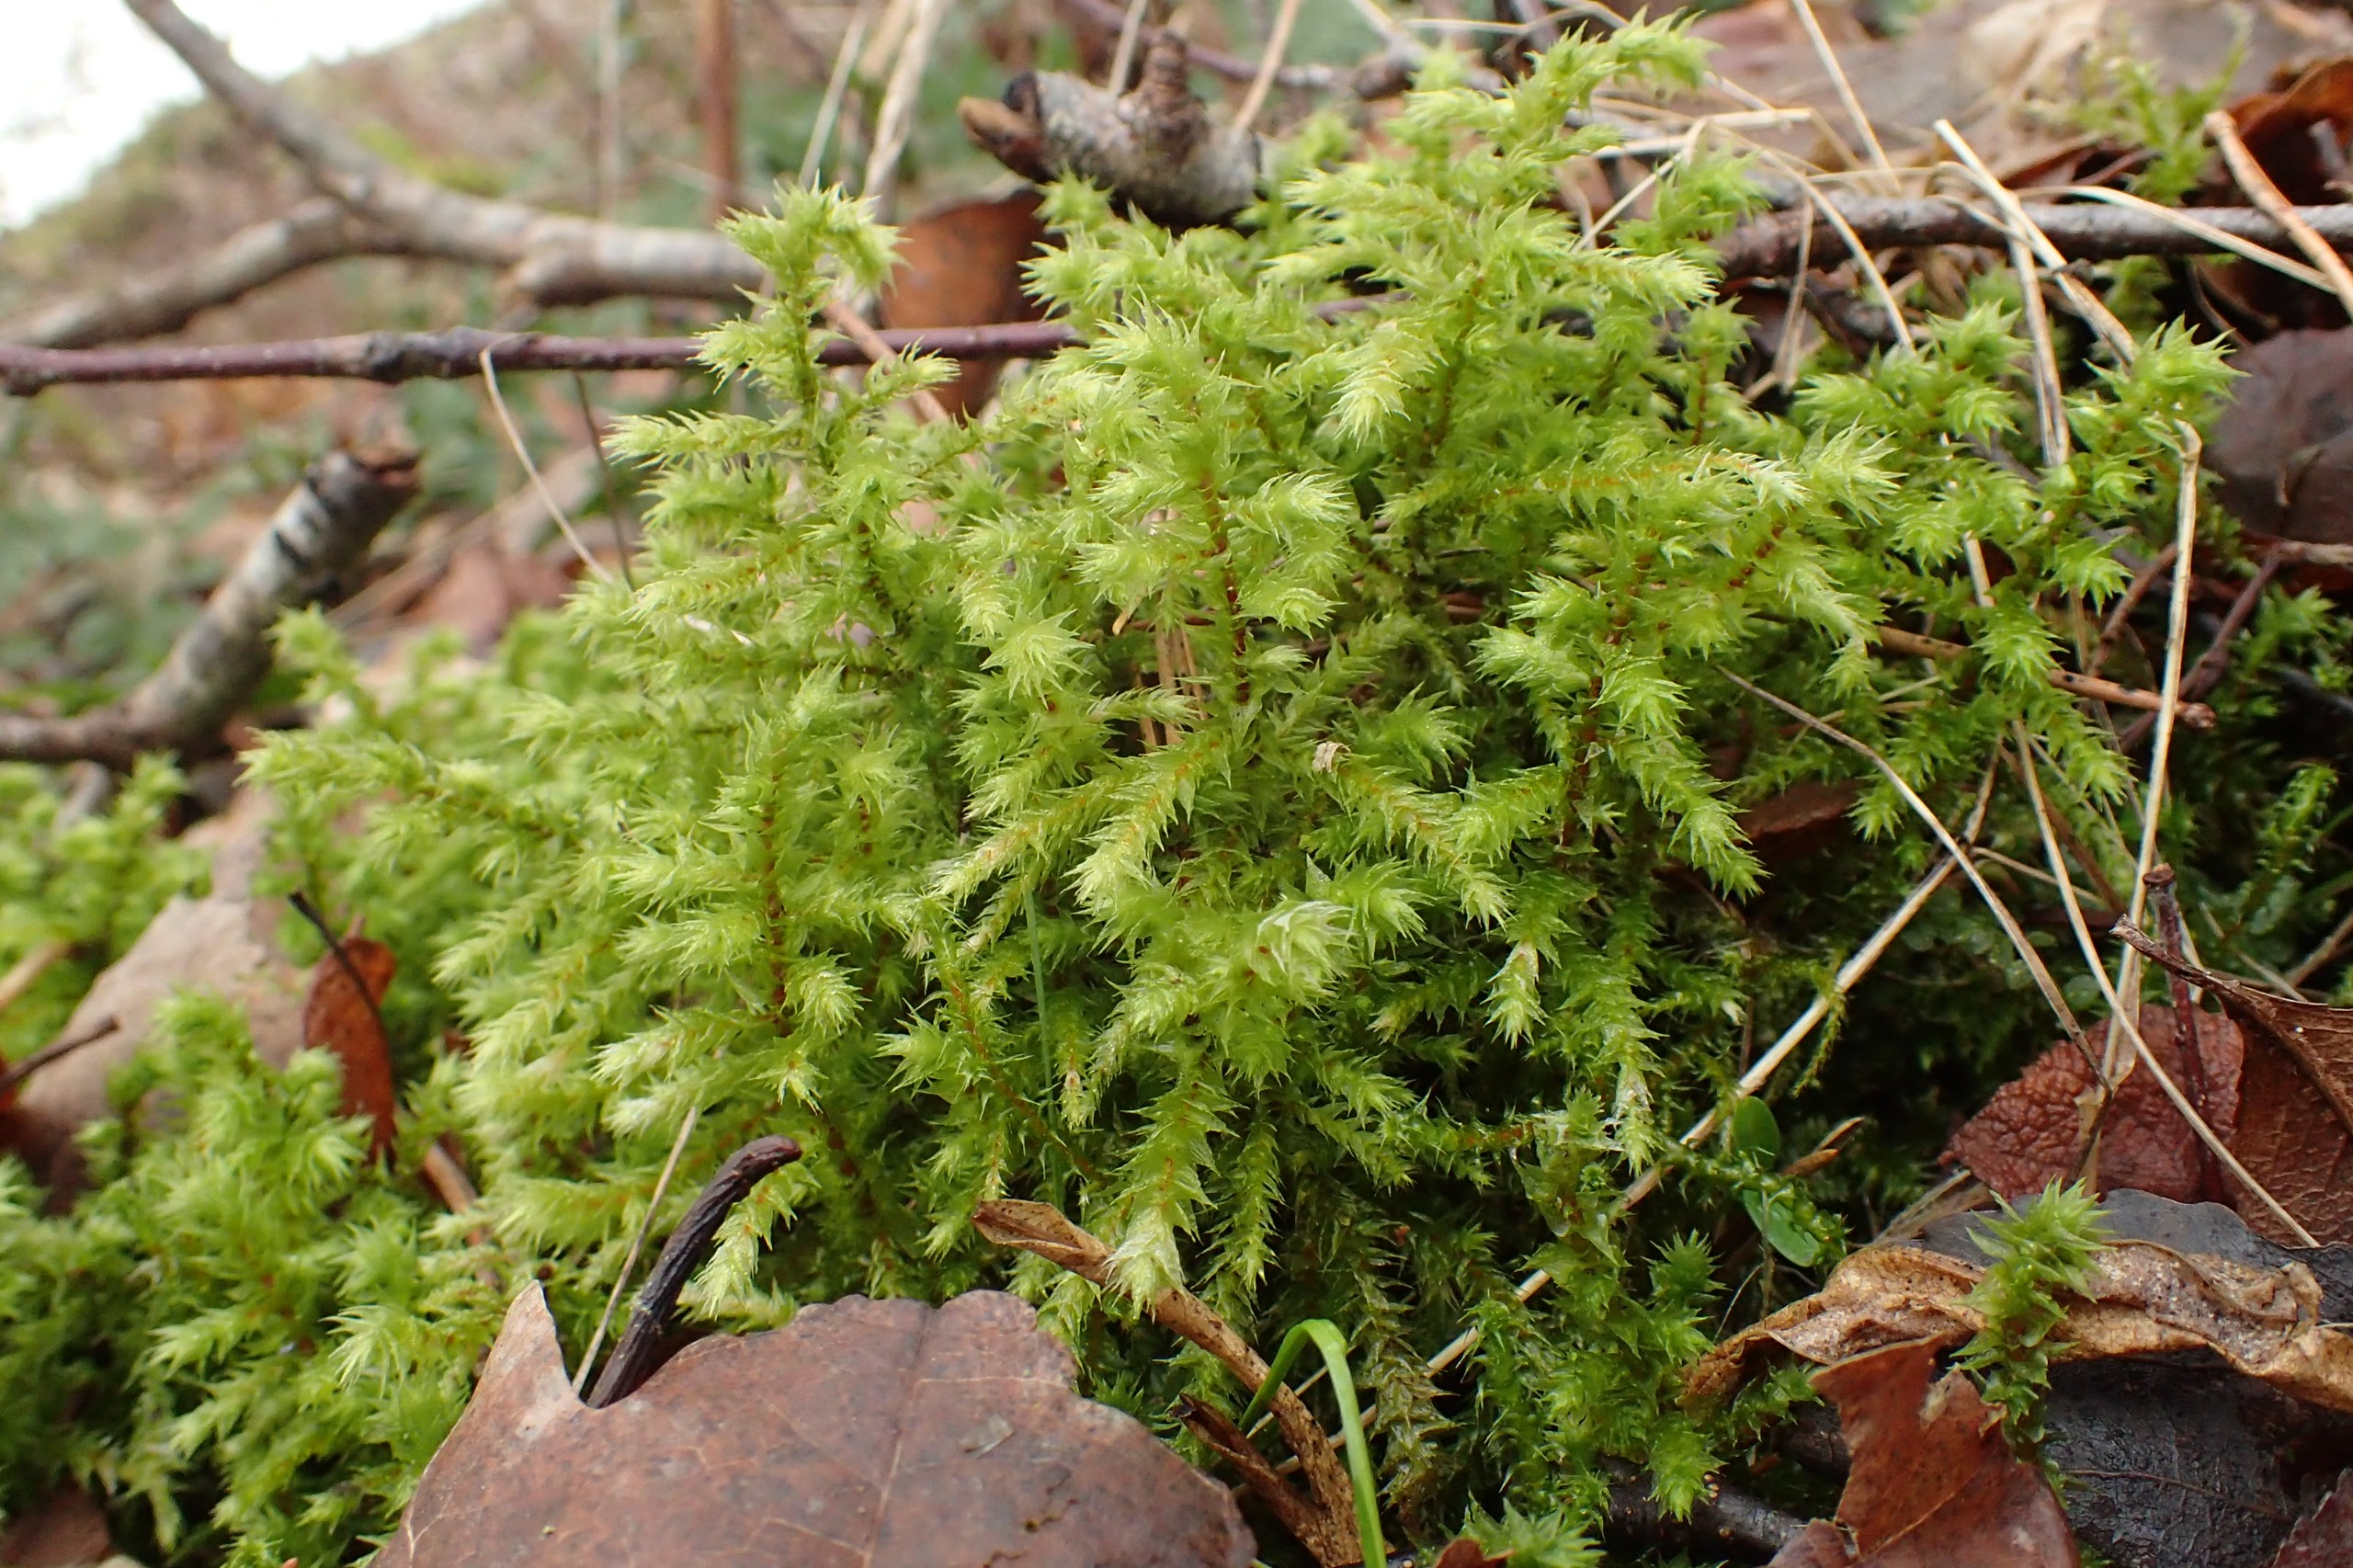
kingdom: Plantae
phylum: Bryophyta
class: Bryopsida
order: Hypnales
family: Hylocomiaceae
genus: Hylocomiadelphus
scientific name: Hylocomiadelphus triquetrus
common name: Stor kransemos
